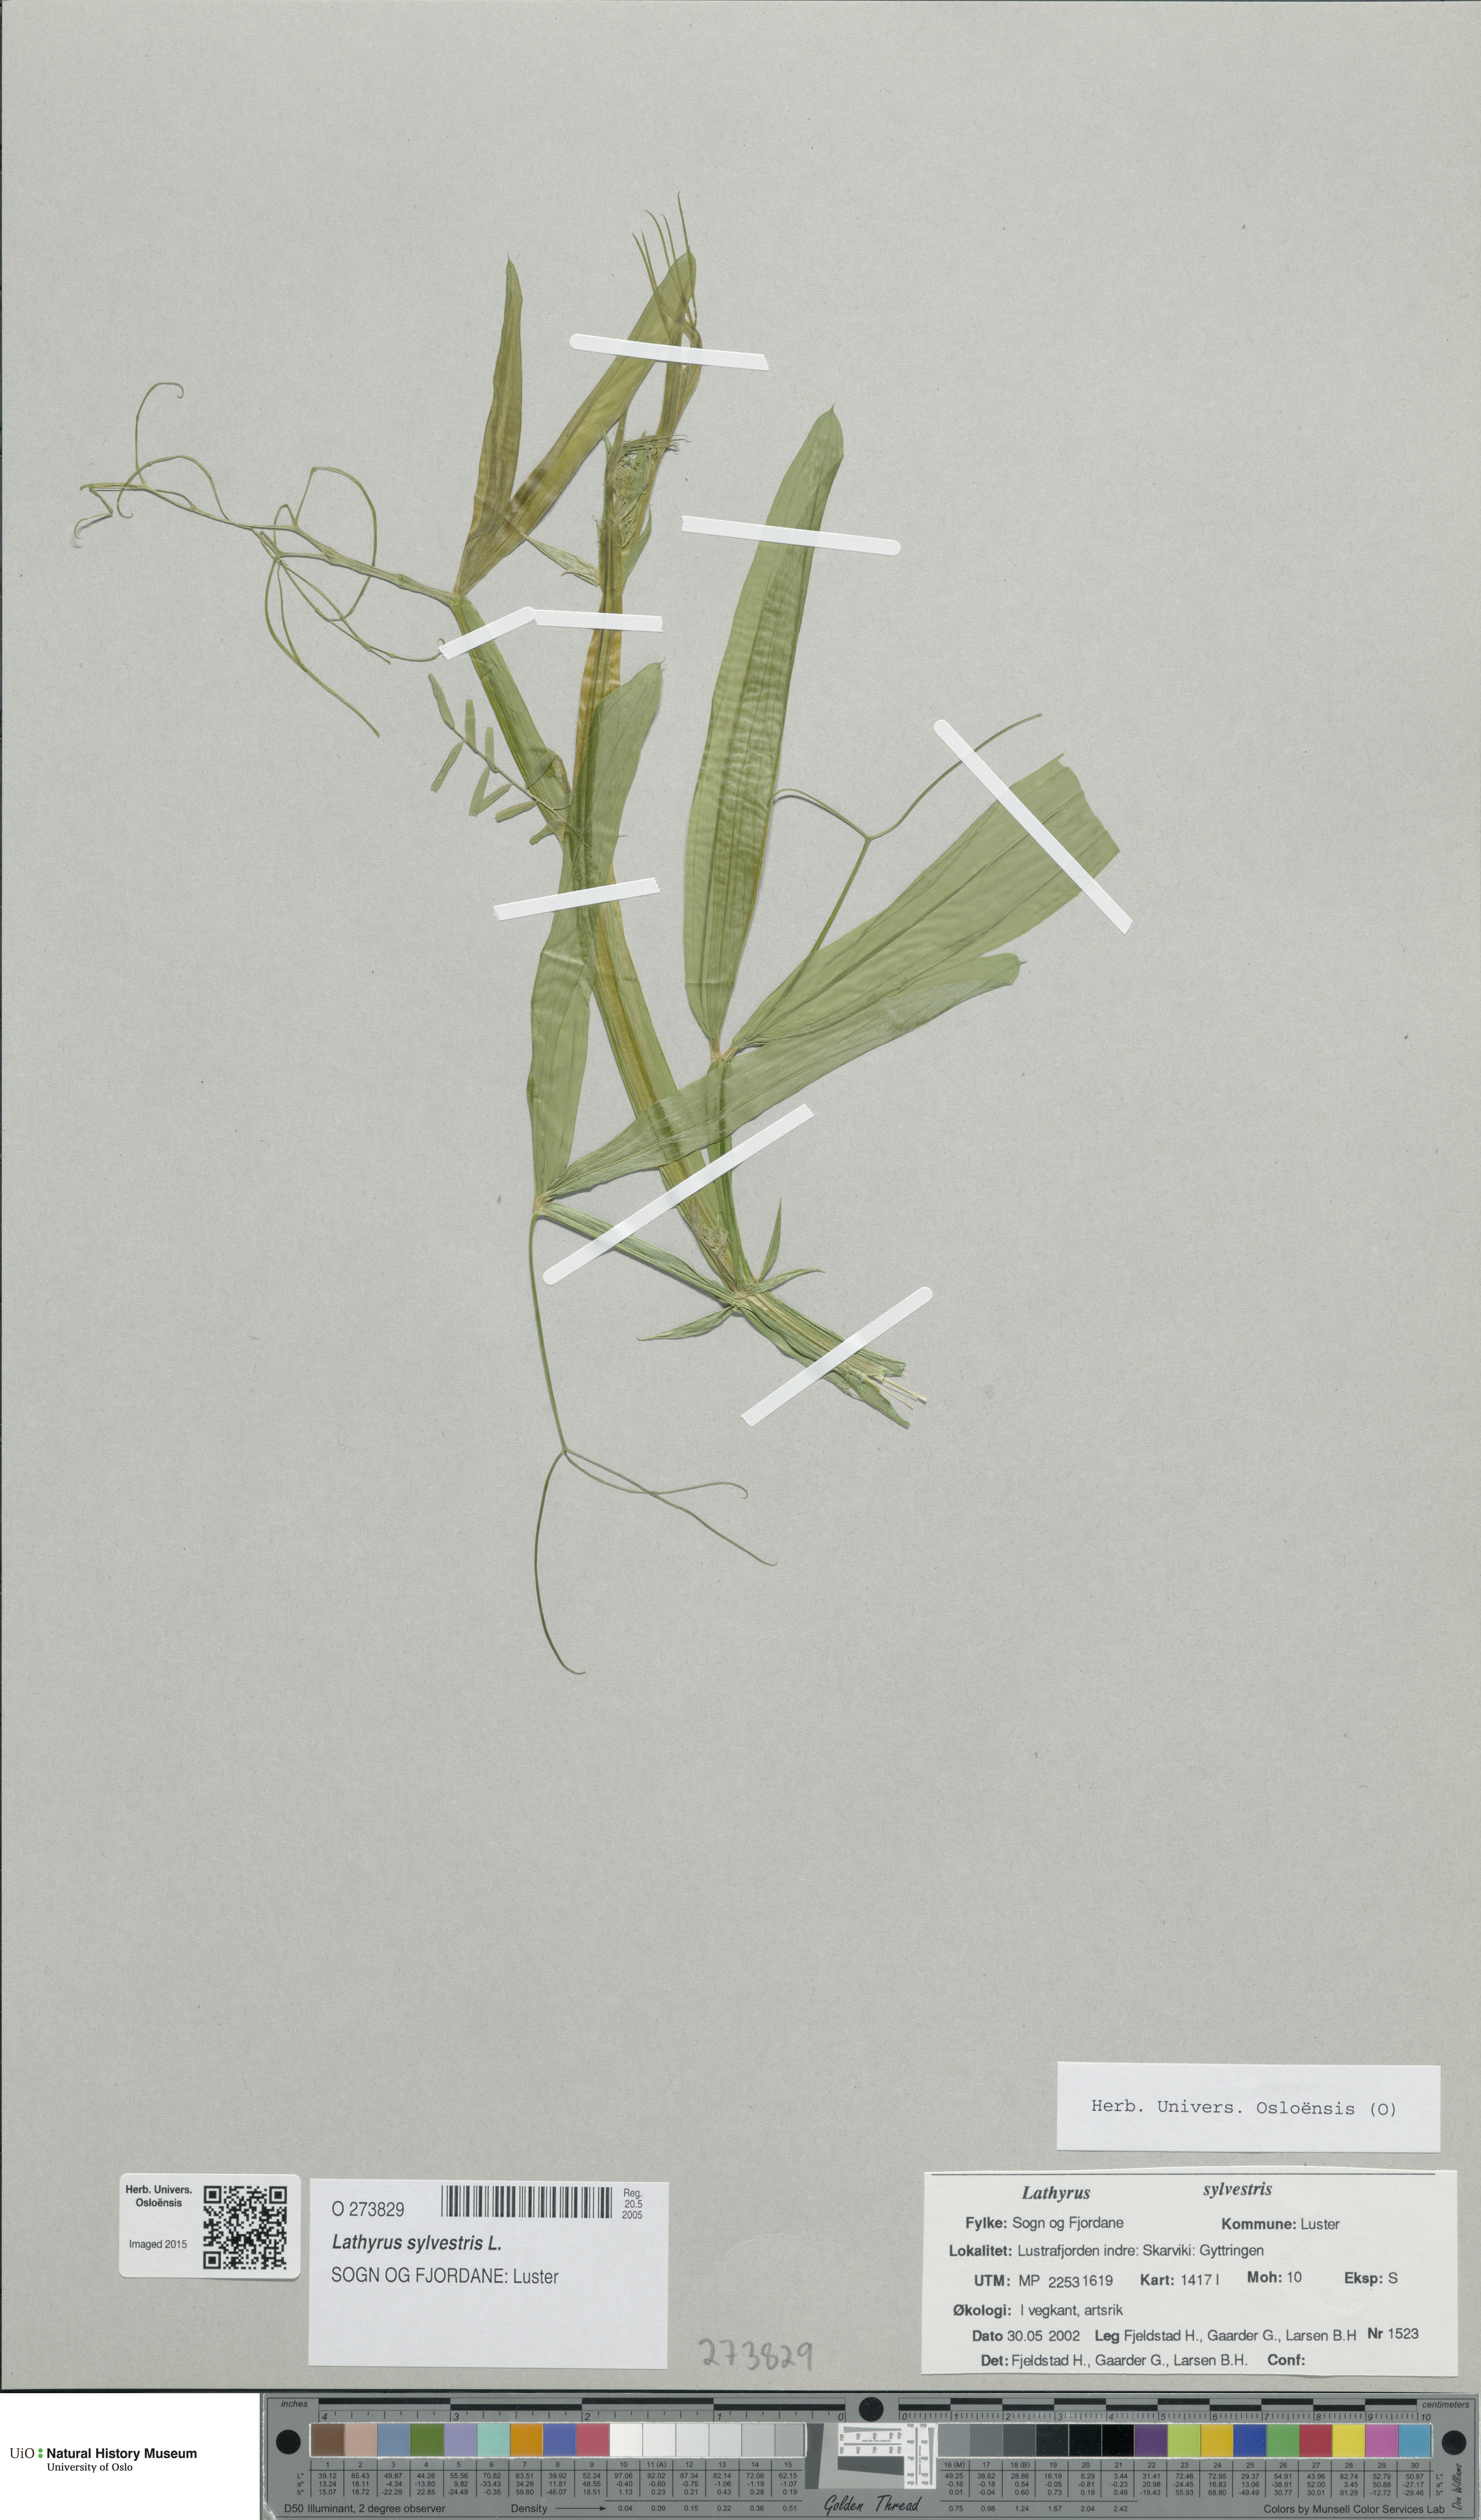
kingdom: Plantae
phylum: Tracheophyta
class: Magnoliopsida
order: Fabales
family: Fabaceae
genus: Lathyrus
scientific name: Lathyrus sylvestris
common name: Flat pea
